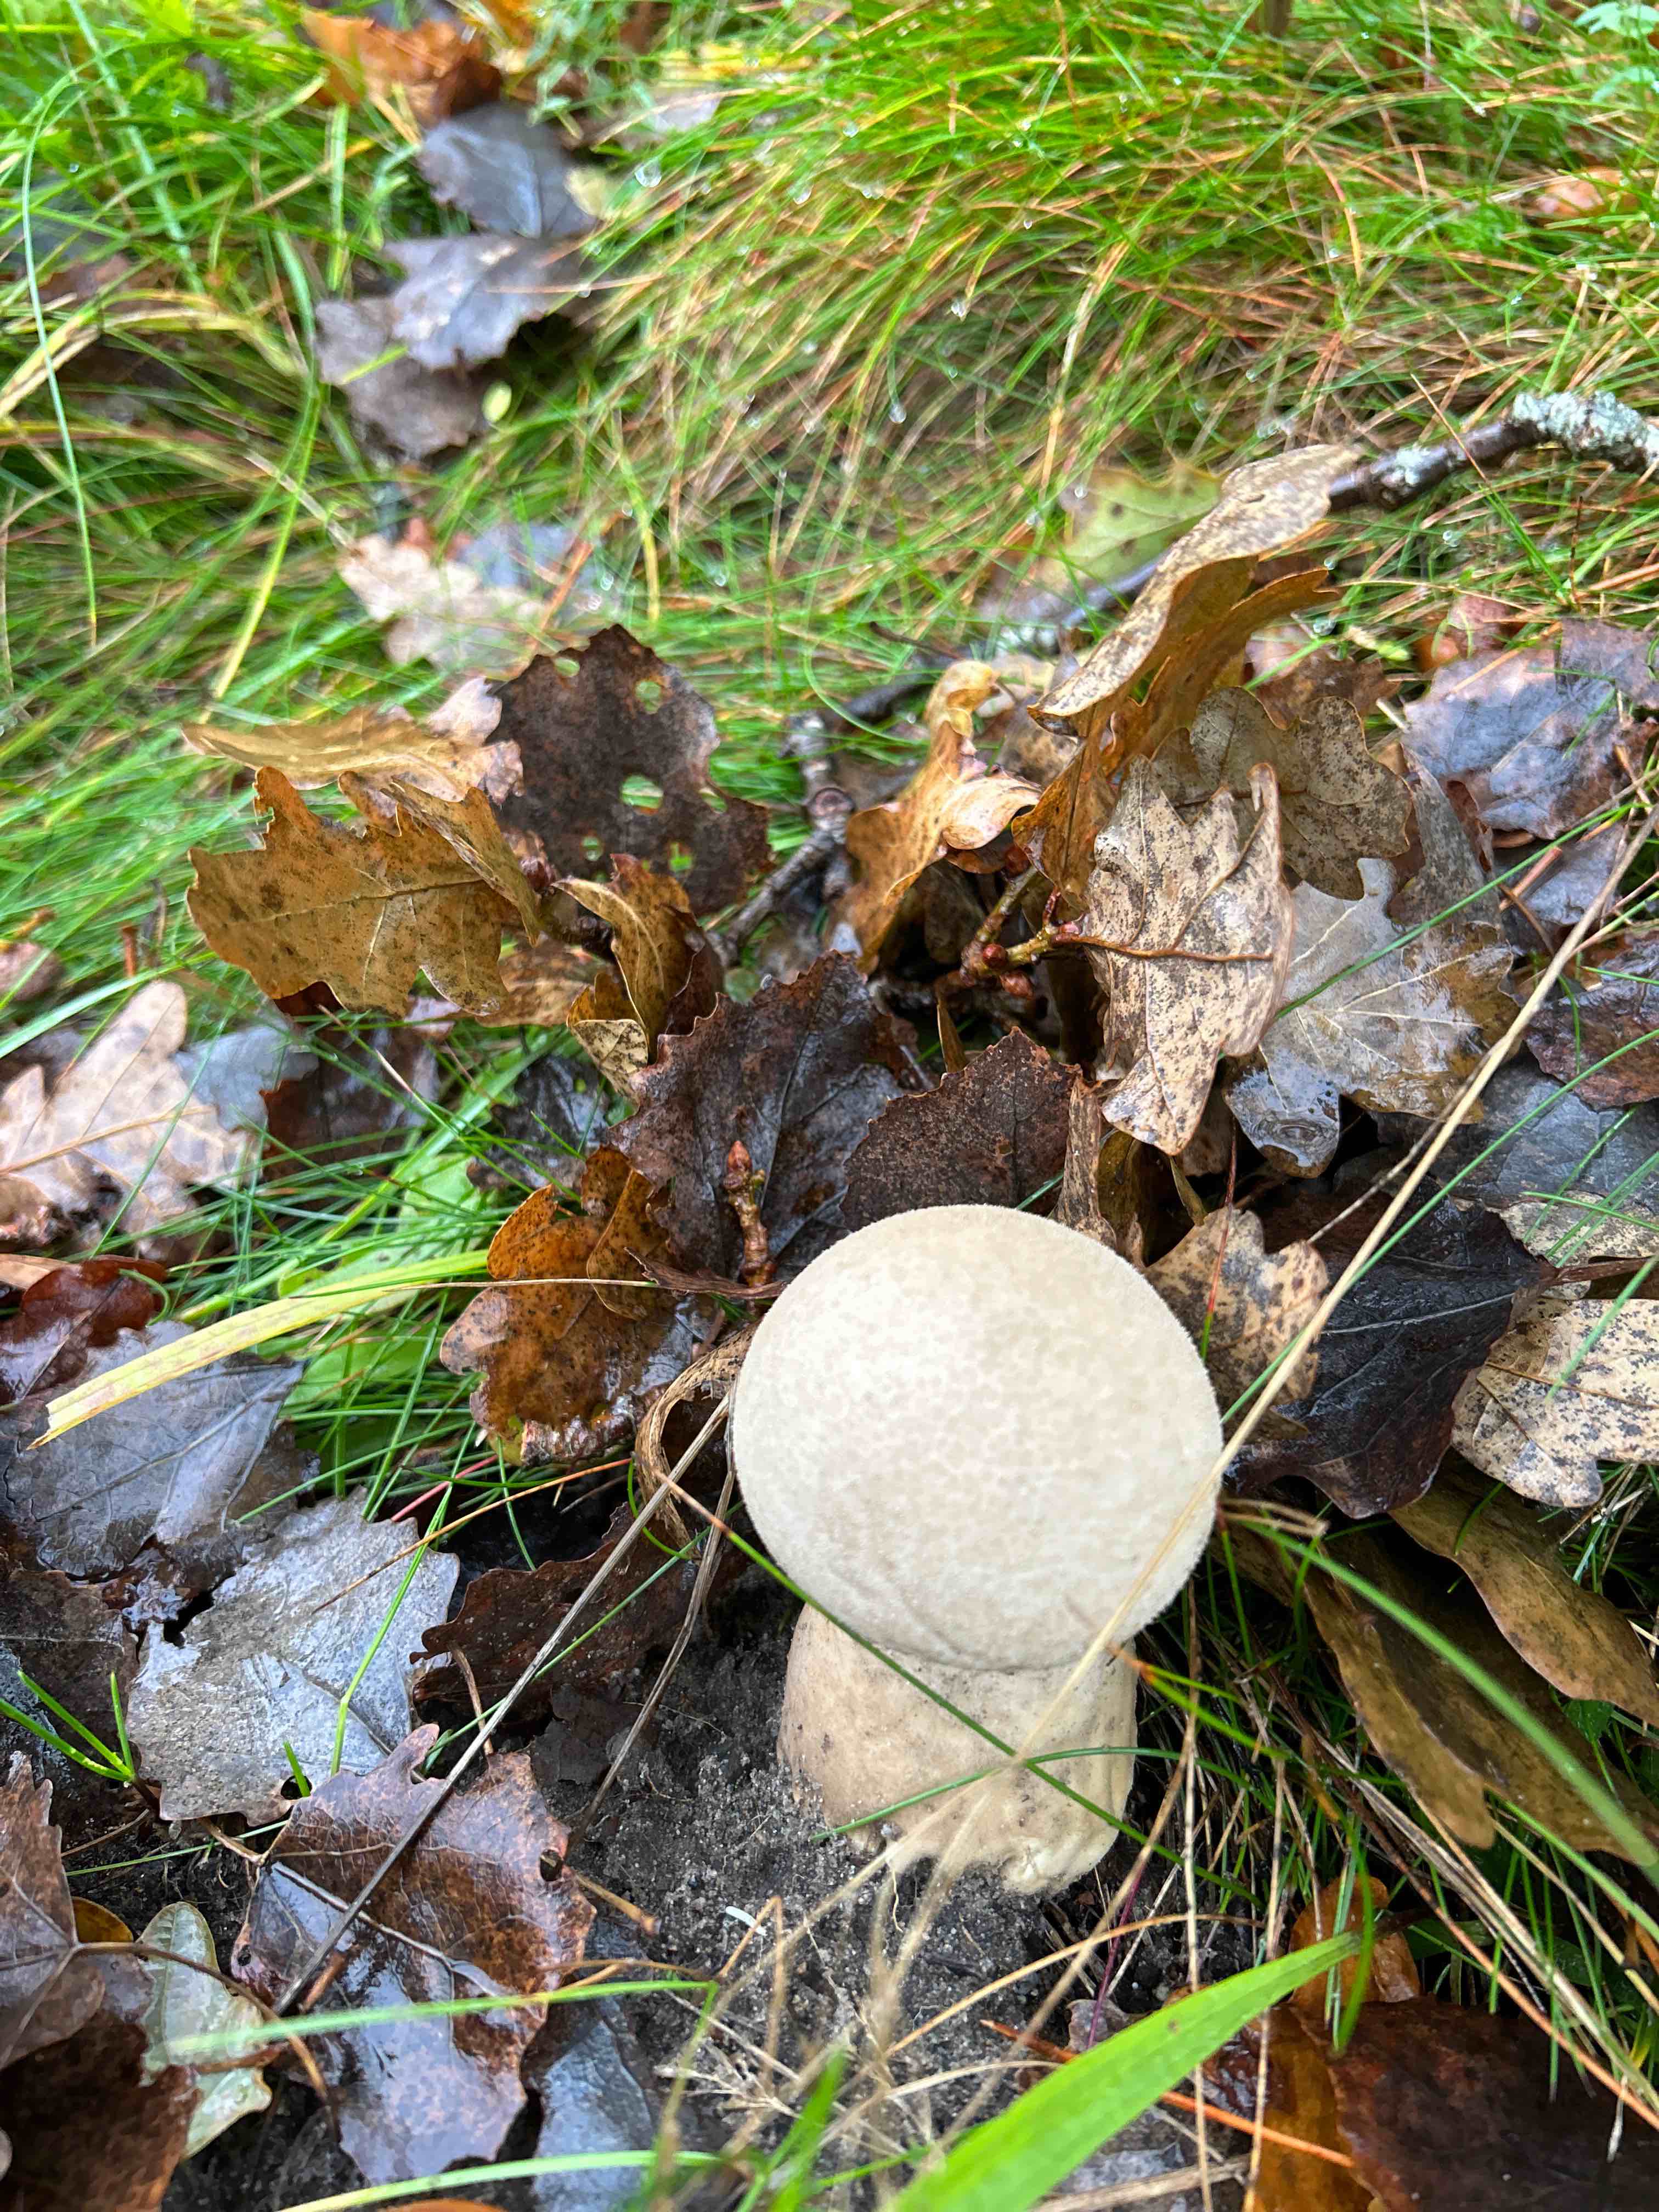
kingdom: Fungi
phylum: Basidiomycota
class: Agaricomycetes
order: Agaricales
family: Lycoperdaceae
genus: Lycoperdon
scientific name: Lycoperdon excipuliforme
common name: højstokket støvbold
